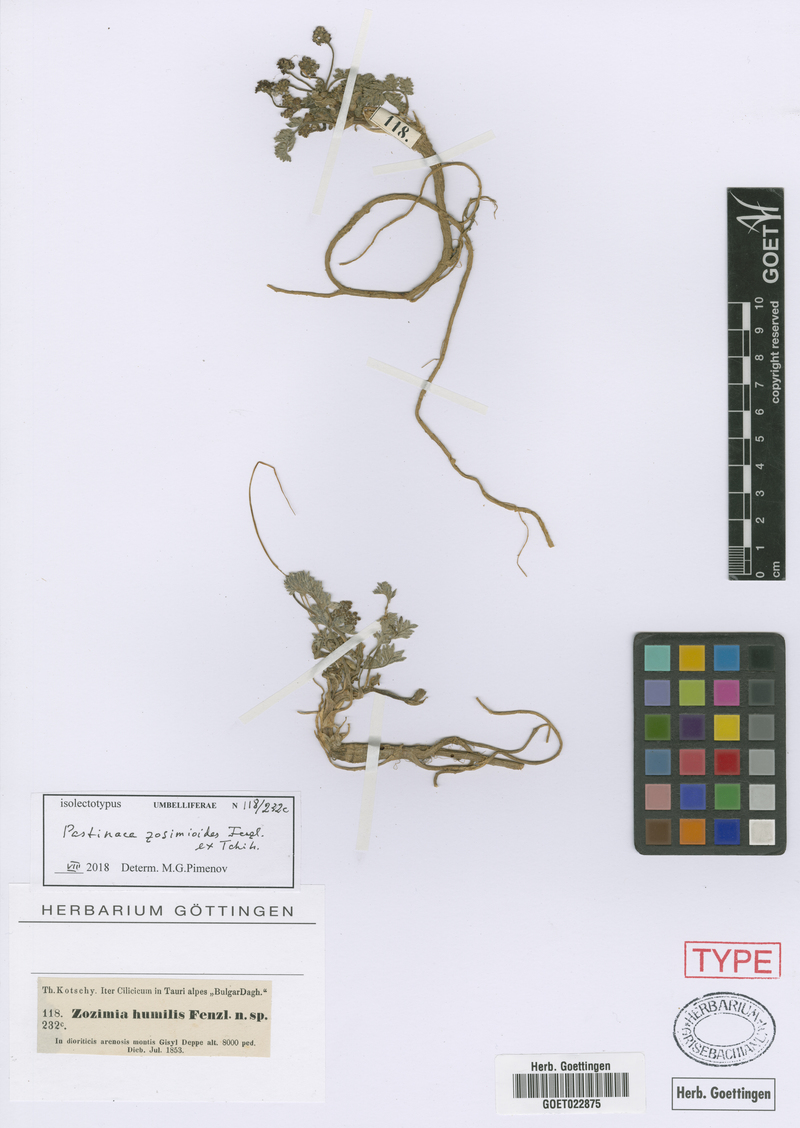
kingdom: Plantae
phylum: Tracheophyta
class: Magnoliopsida
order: Apiales
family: Apiaceae
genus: Pastinaca
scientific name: Pastinaca zozimoides
